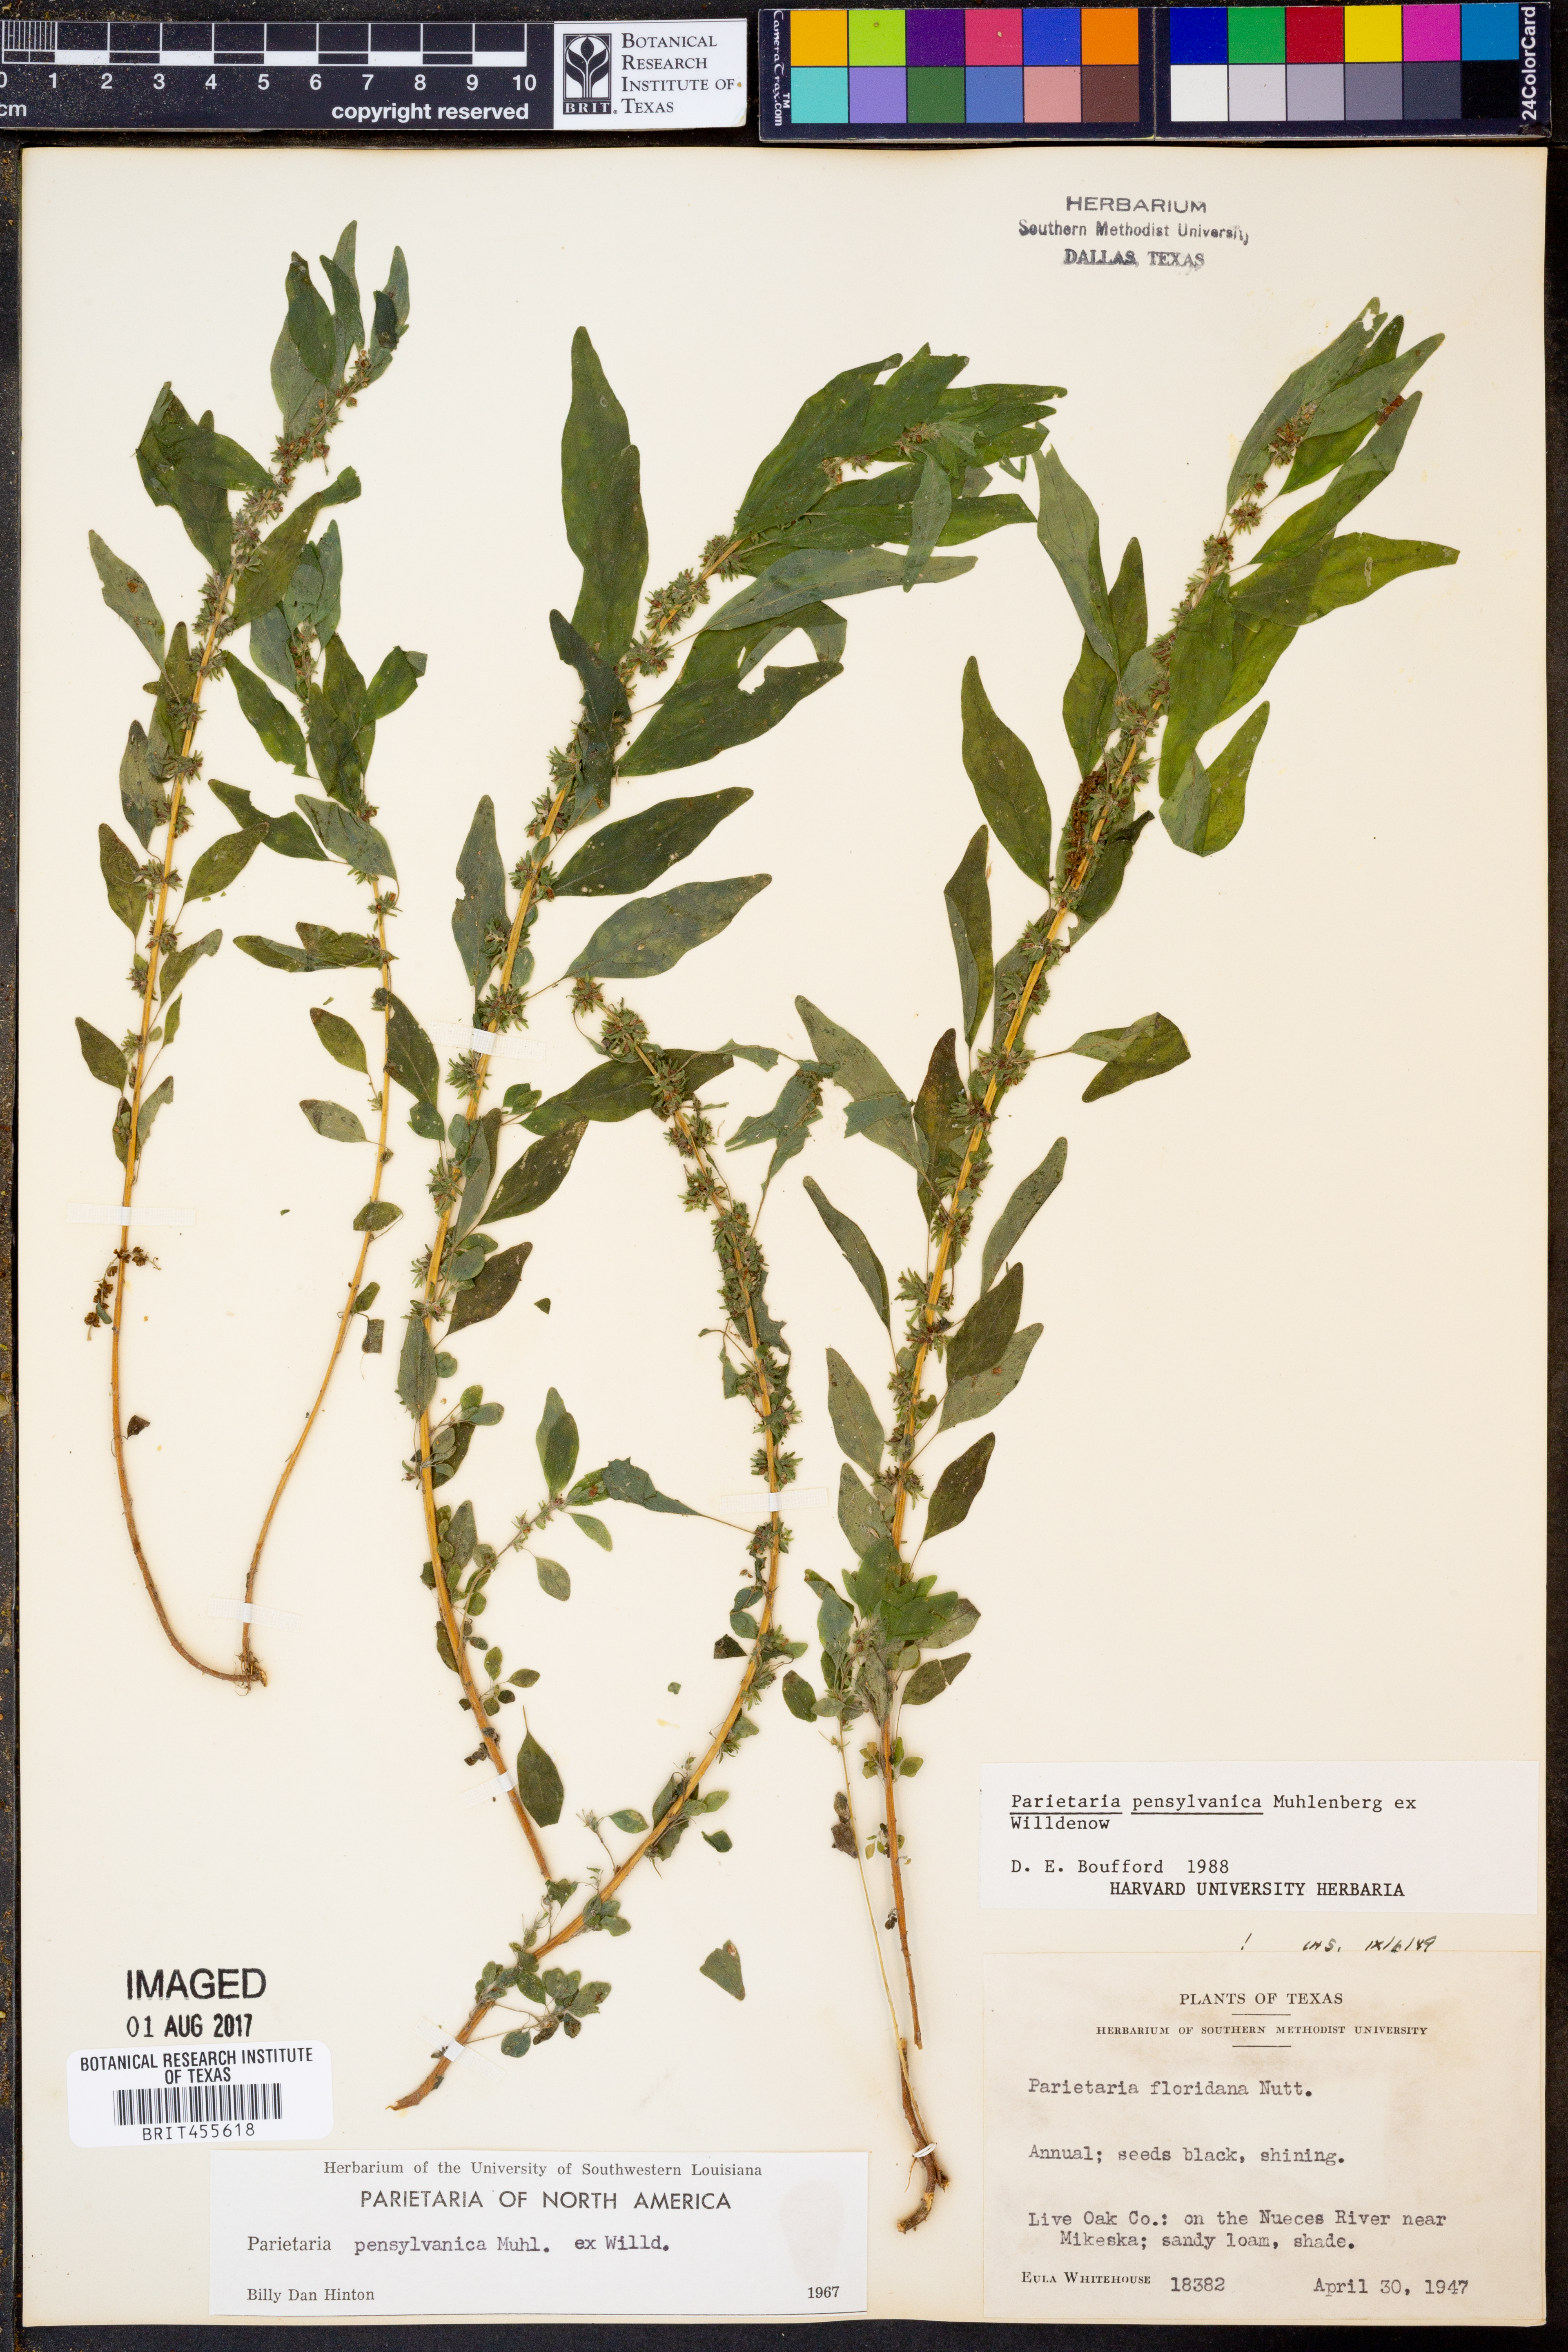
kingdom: Plantae
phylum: Tracheophyta
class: Magnoliopsida
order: Rosales
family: Urticaceae
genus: Parietaria
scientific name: Parietaria pensylvanica
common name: Pennsylvania pellitory
